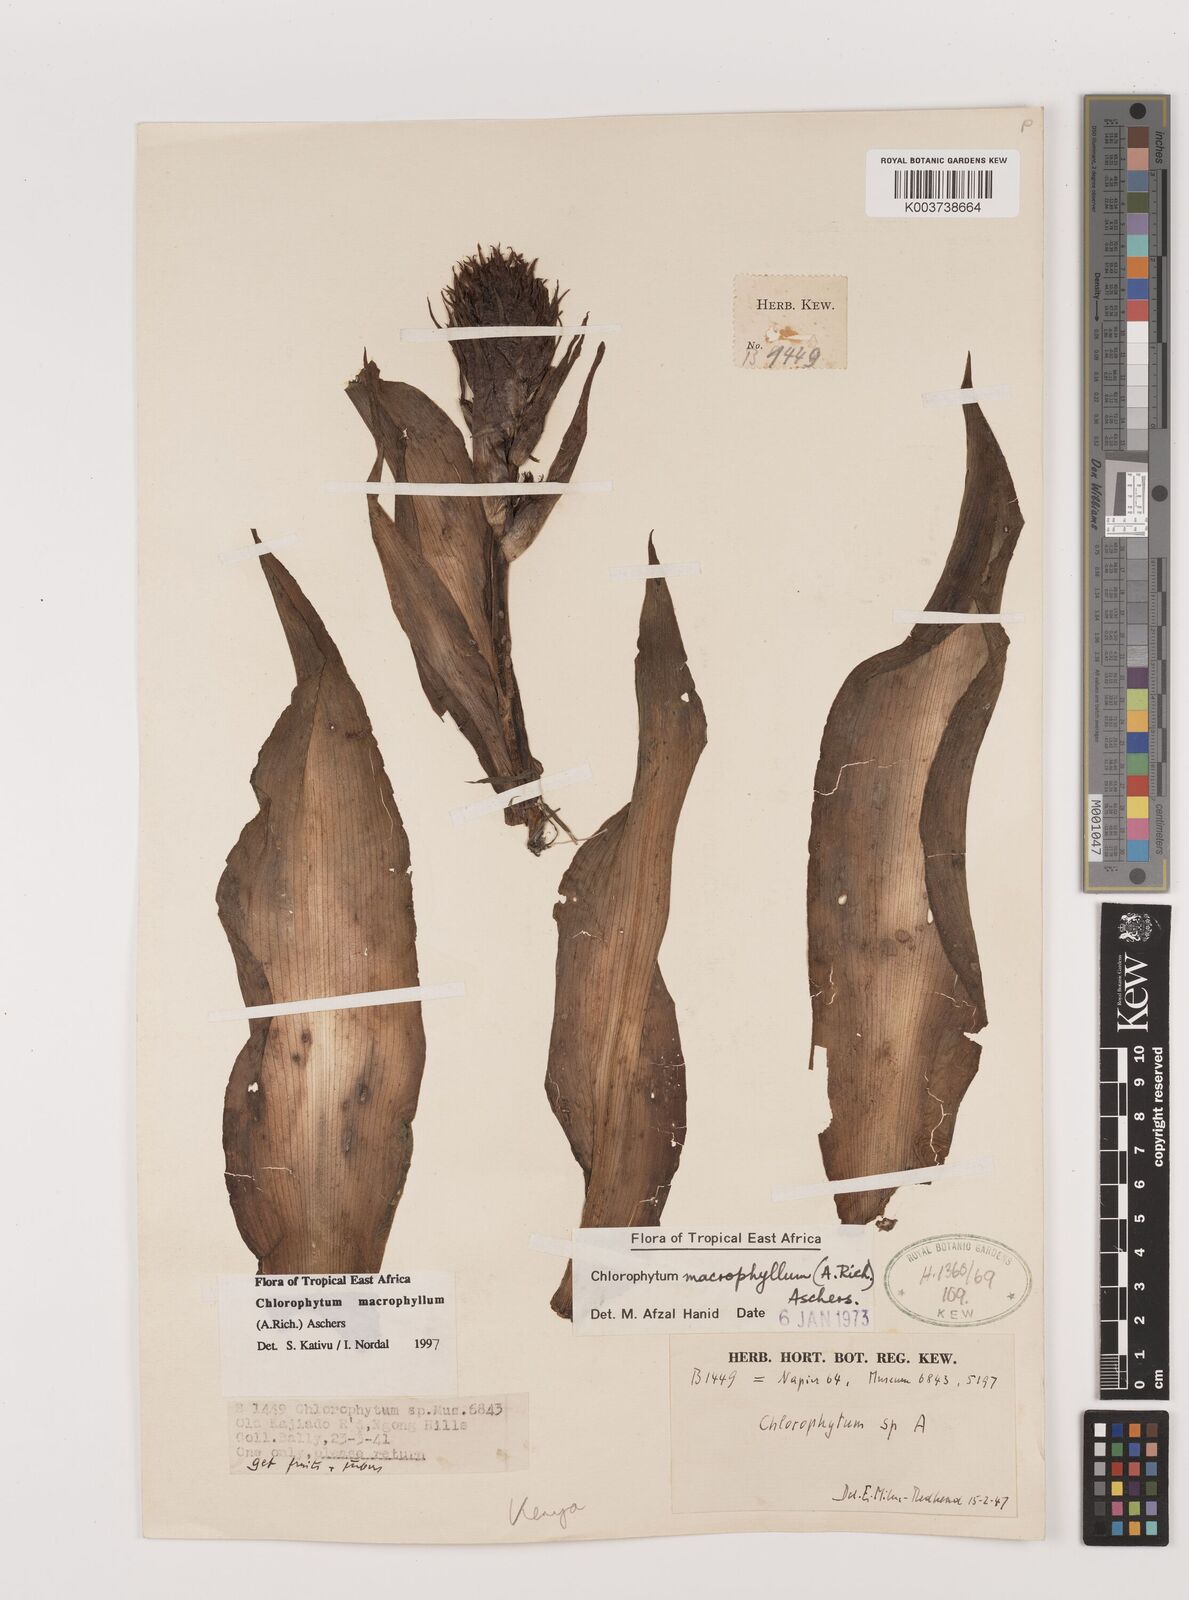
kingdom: Plantae
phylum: Tracheophyta
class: Liliopsida
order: Asparagales
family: Asparagaceae
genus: Chlorophytum
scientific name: Chlorophytum macrophyllum
